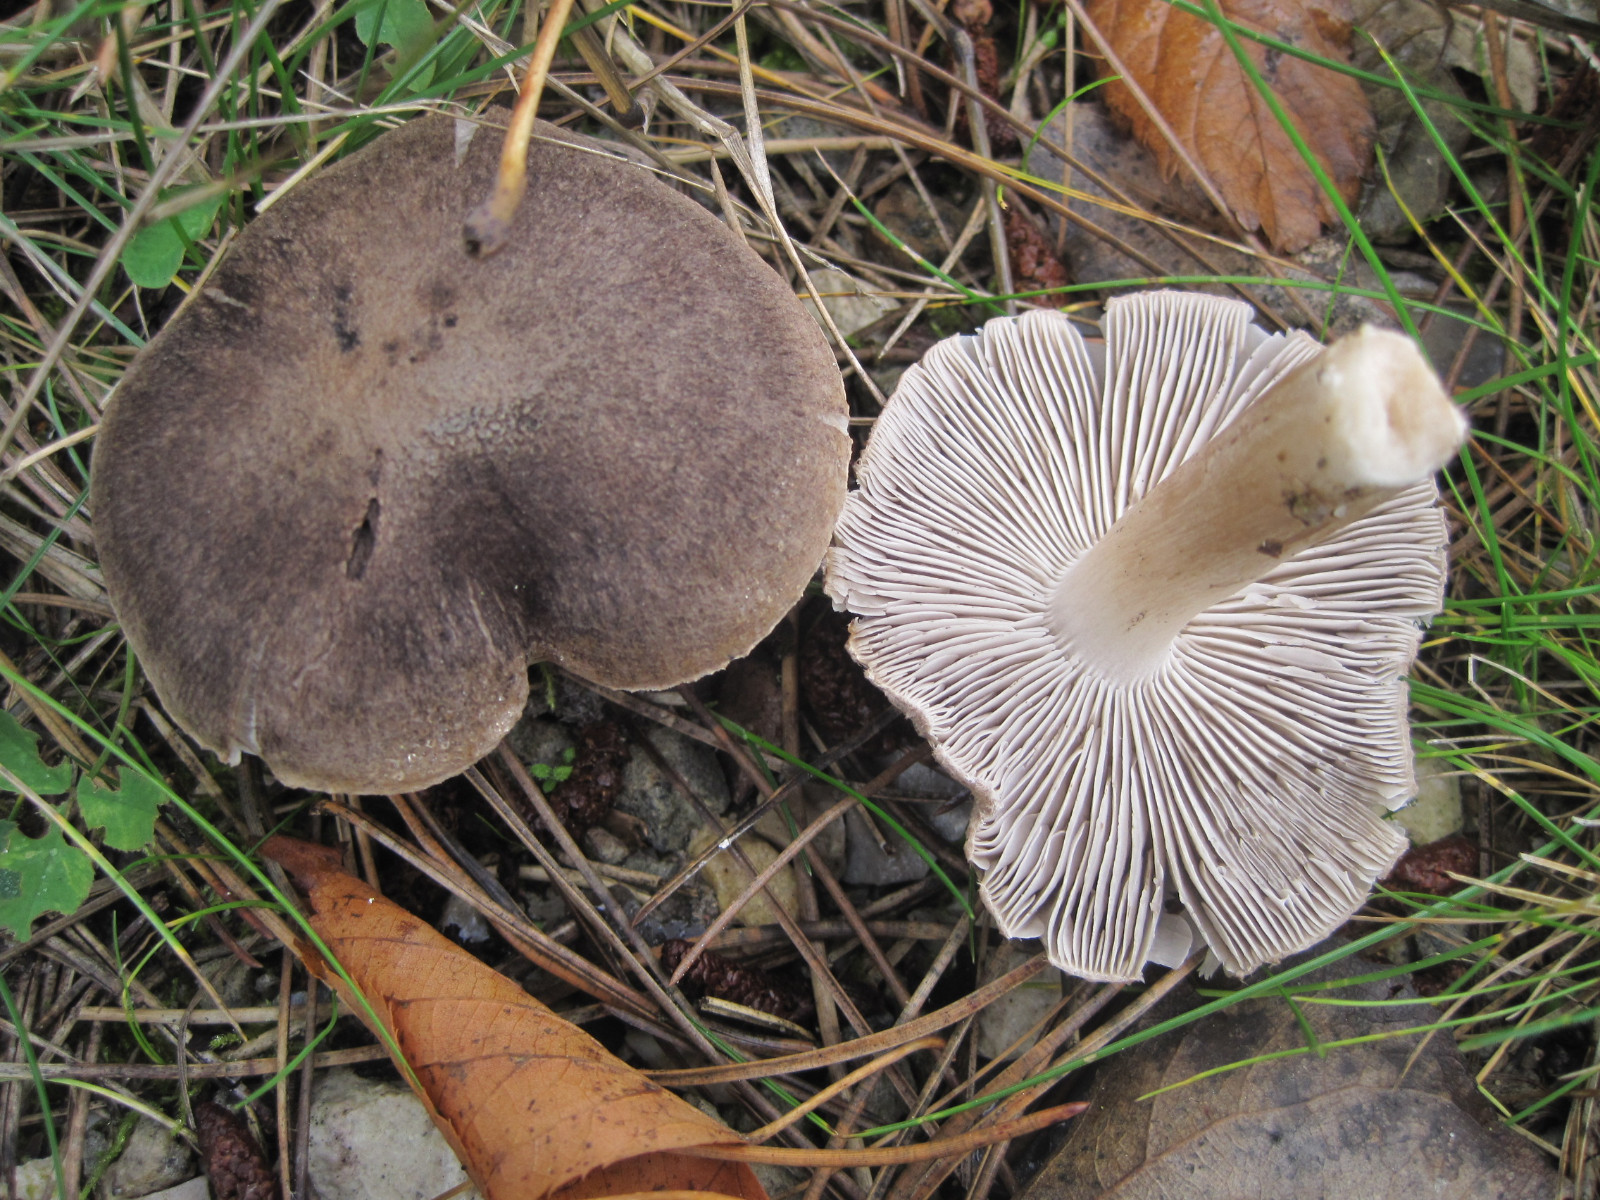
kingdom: Fungi
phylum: Basidiomycota
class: Agaricomycetes
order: Agaricales
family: Tricholomataceae
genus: Tricholoma
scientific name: Tricholoma terreum
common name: jordfarvet ridderhat
